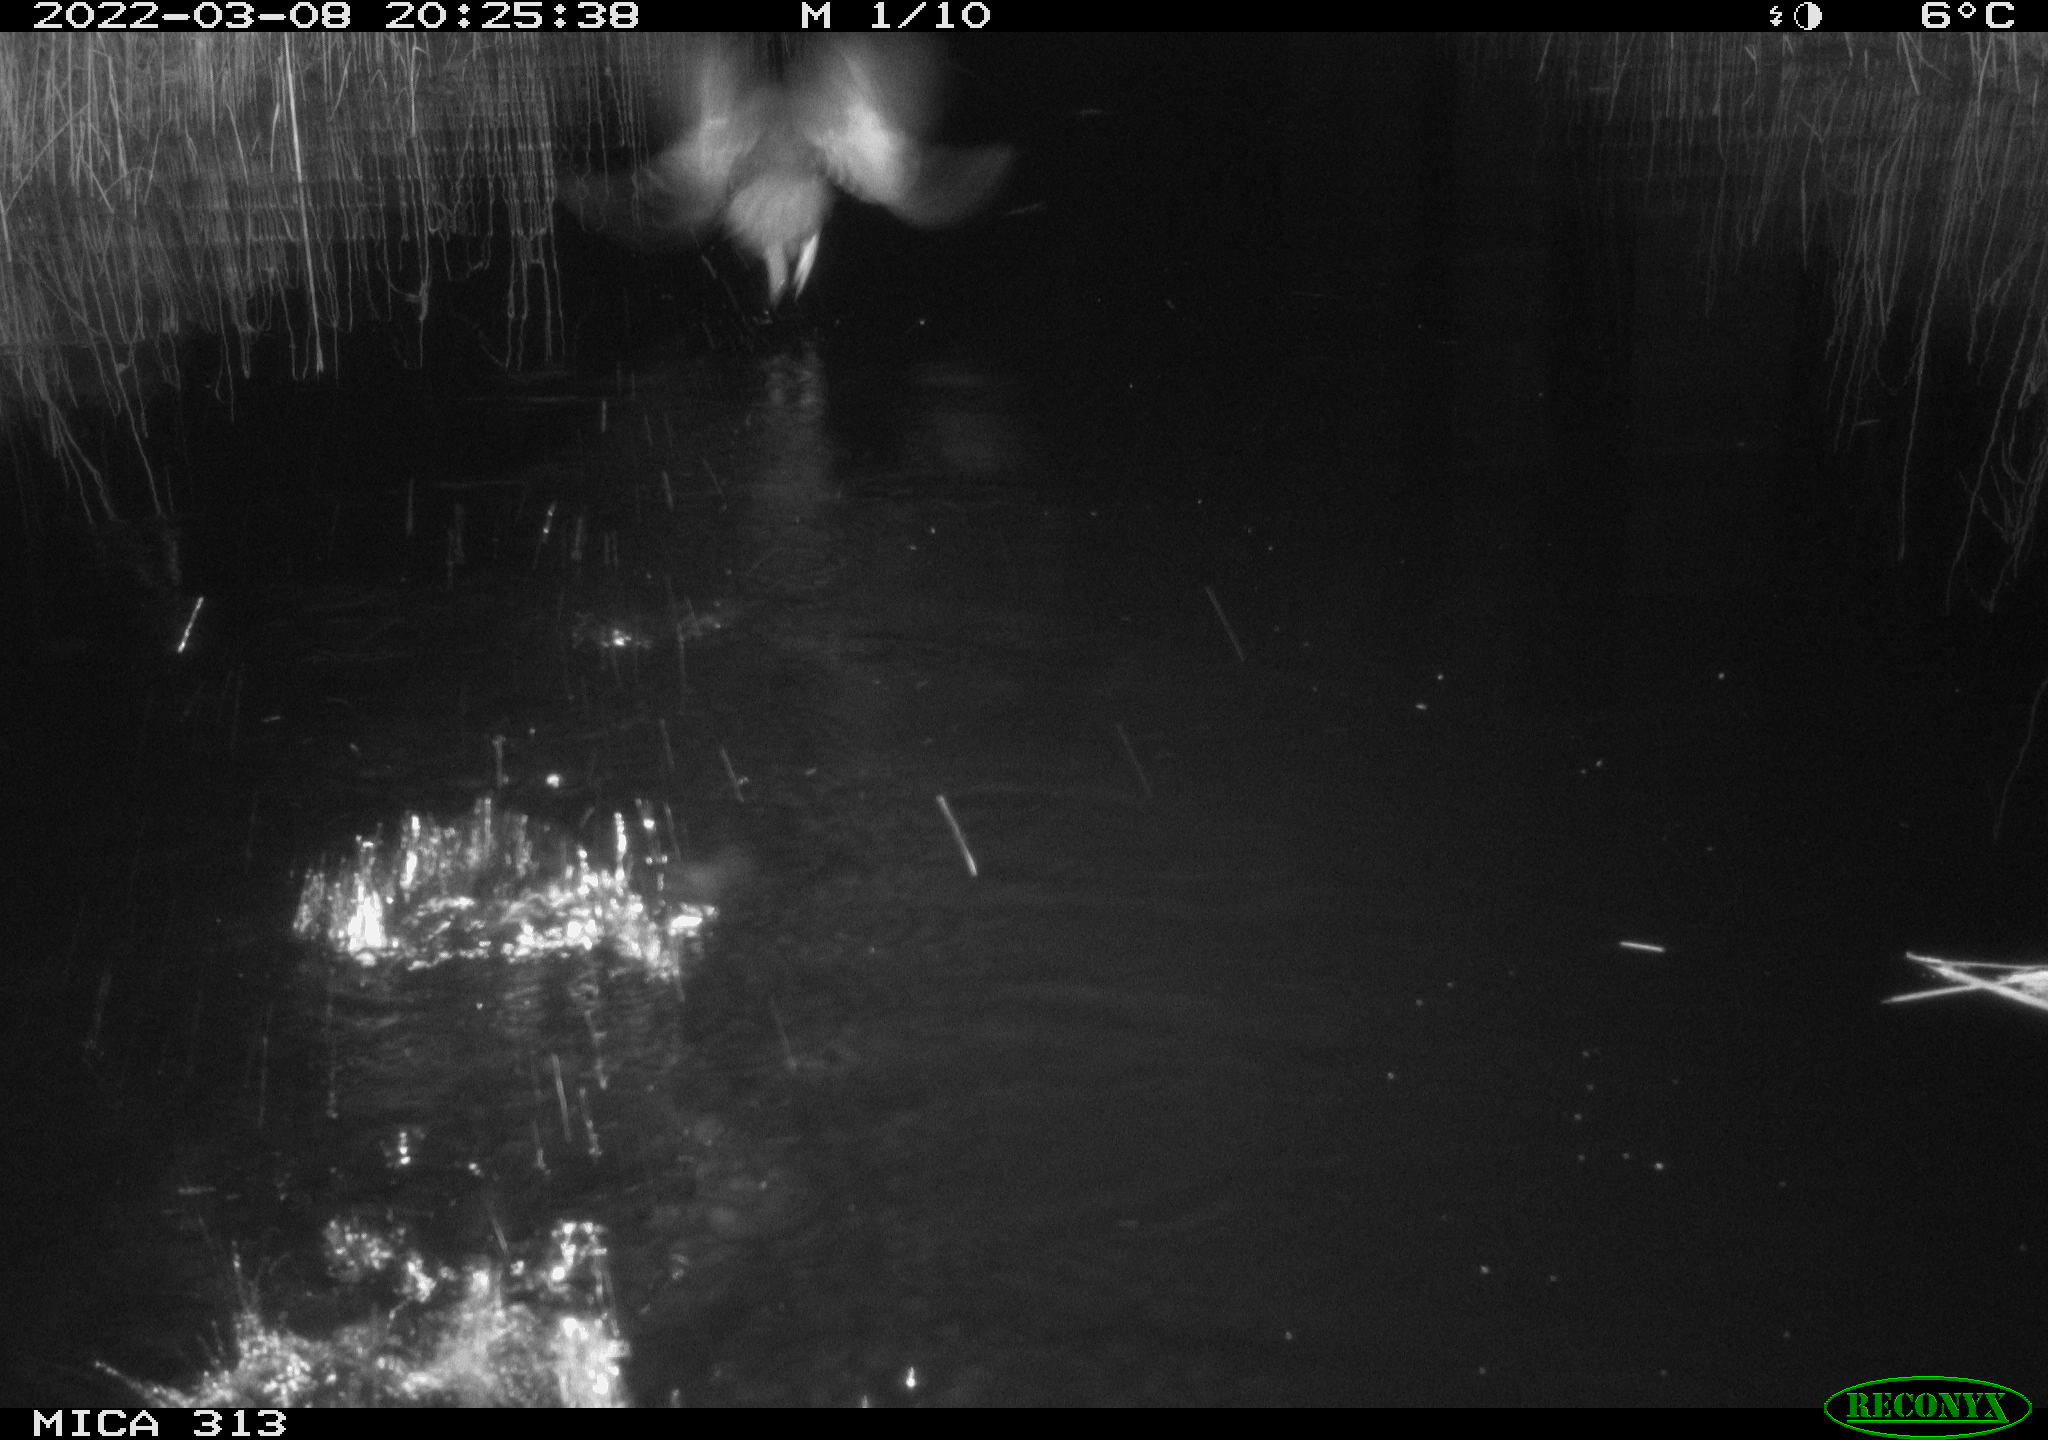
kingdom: Animalia
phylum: Chordata
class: Mammalia
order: Rodentia
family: Cricetidae
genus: Ondatra
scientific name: Ondatra zibethicus
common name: Muskrat
